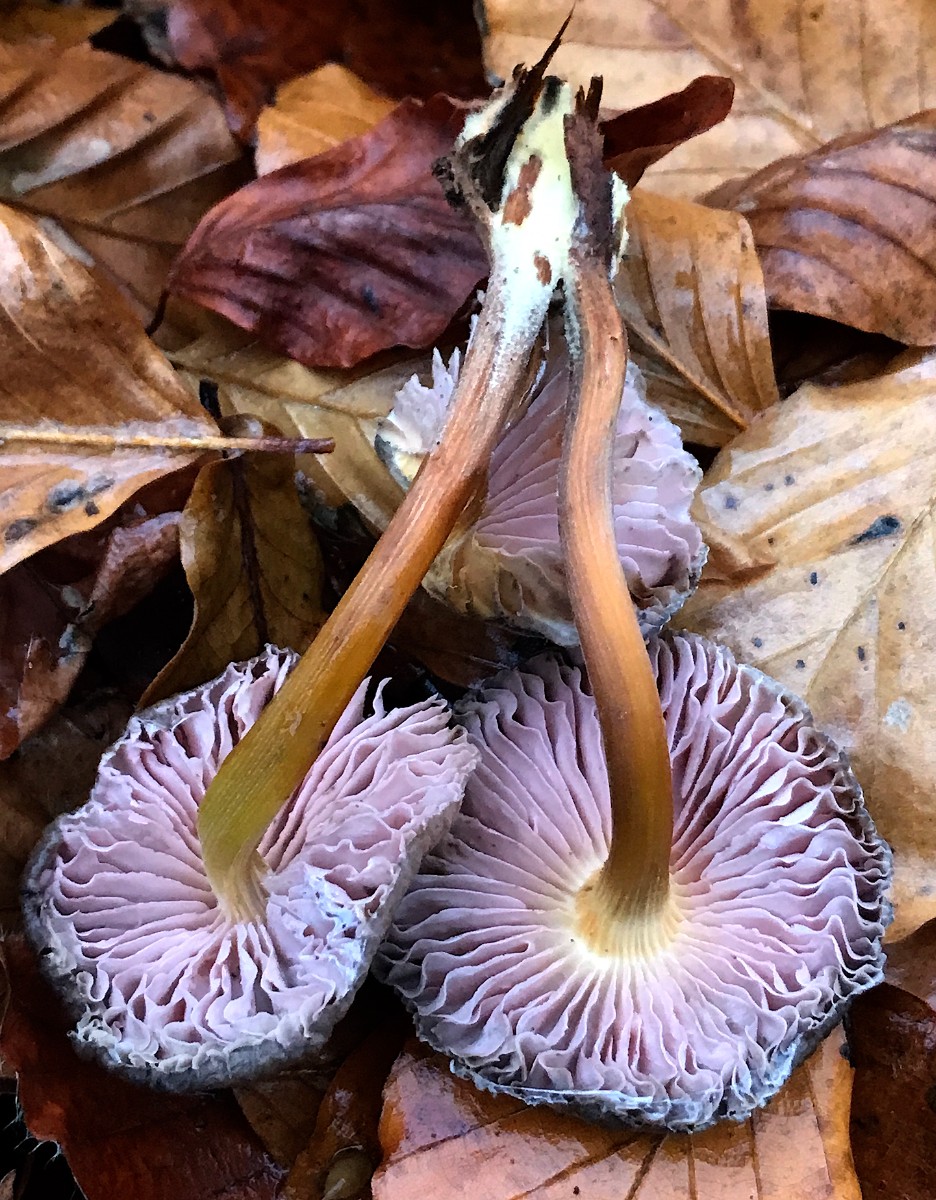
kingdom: Fungi
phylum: Basidiomycota
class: Agaricomycetes
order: Agaricales
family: Mycenaceae
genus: Mycena
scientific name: Mycena inclinata
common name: nikkende huesvamp
